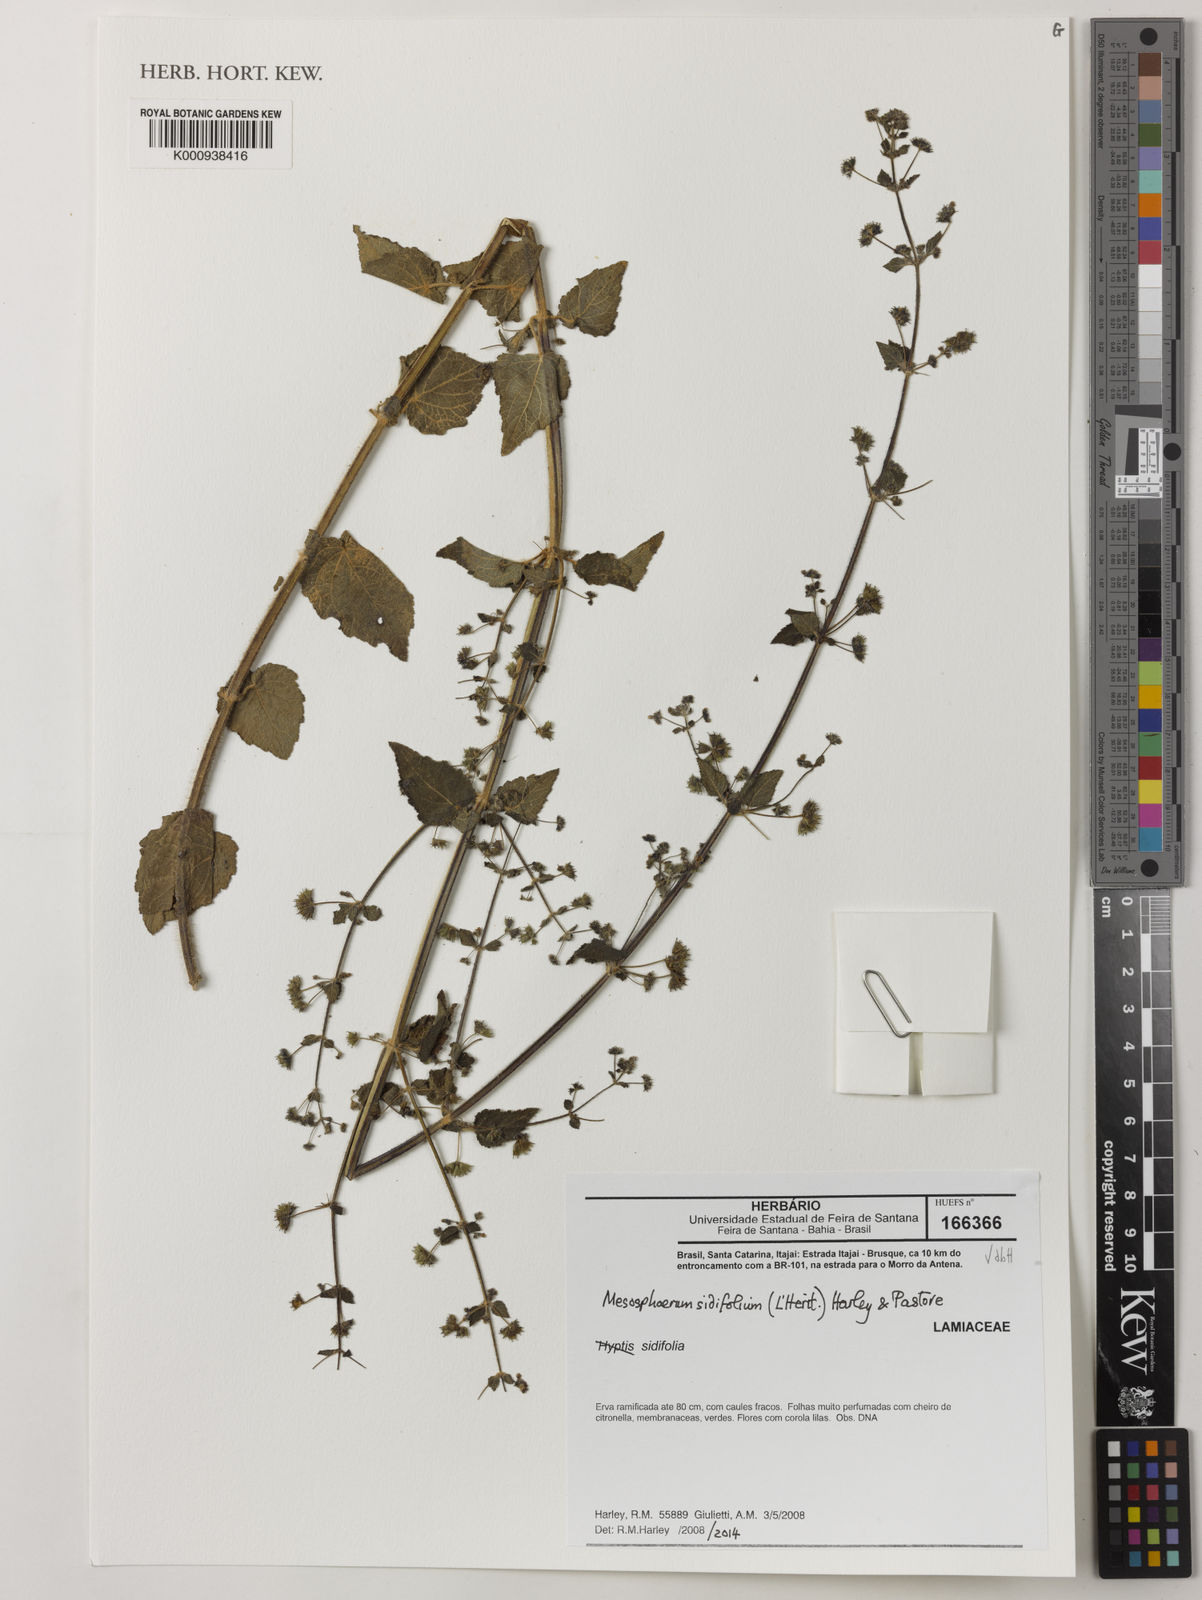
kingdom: Plantae
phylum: Tracheophyta
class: Magnoliopsida
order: Lamiales
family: Lamiaceae
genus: Mesosphaerum
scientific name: Mesosphaerum sidifolium
